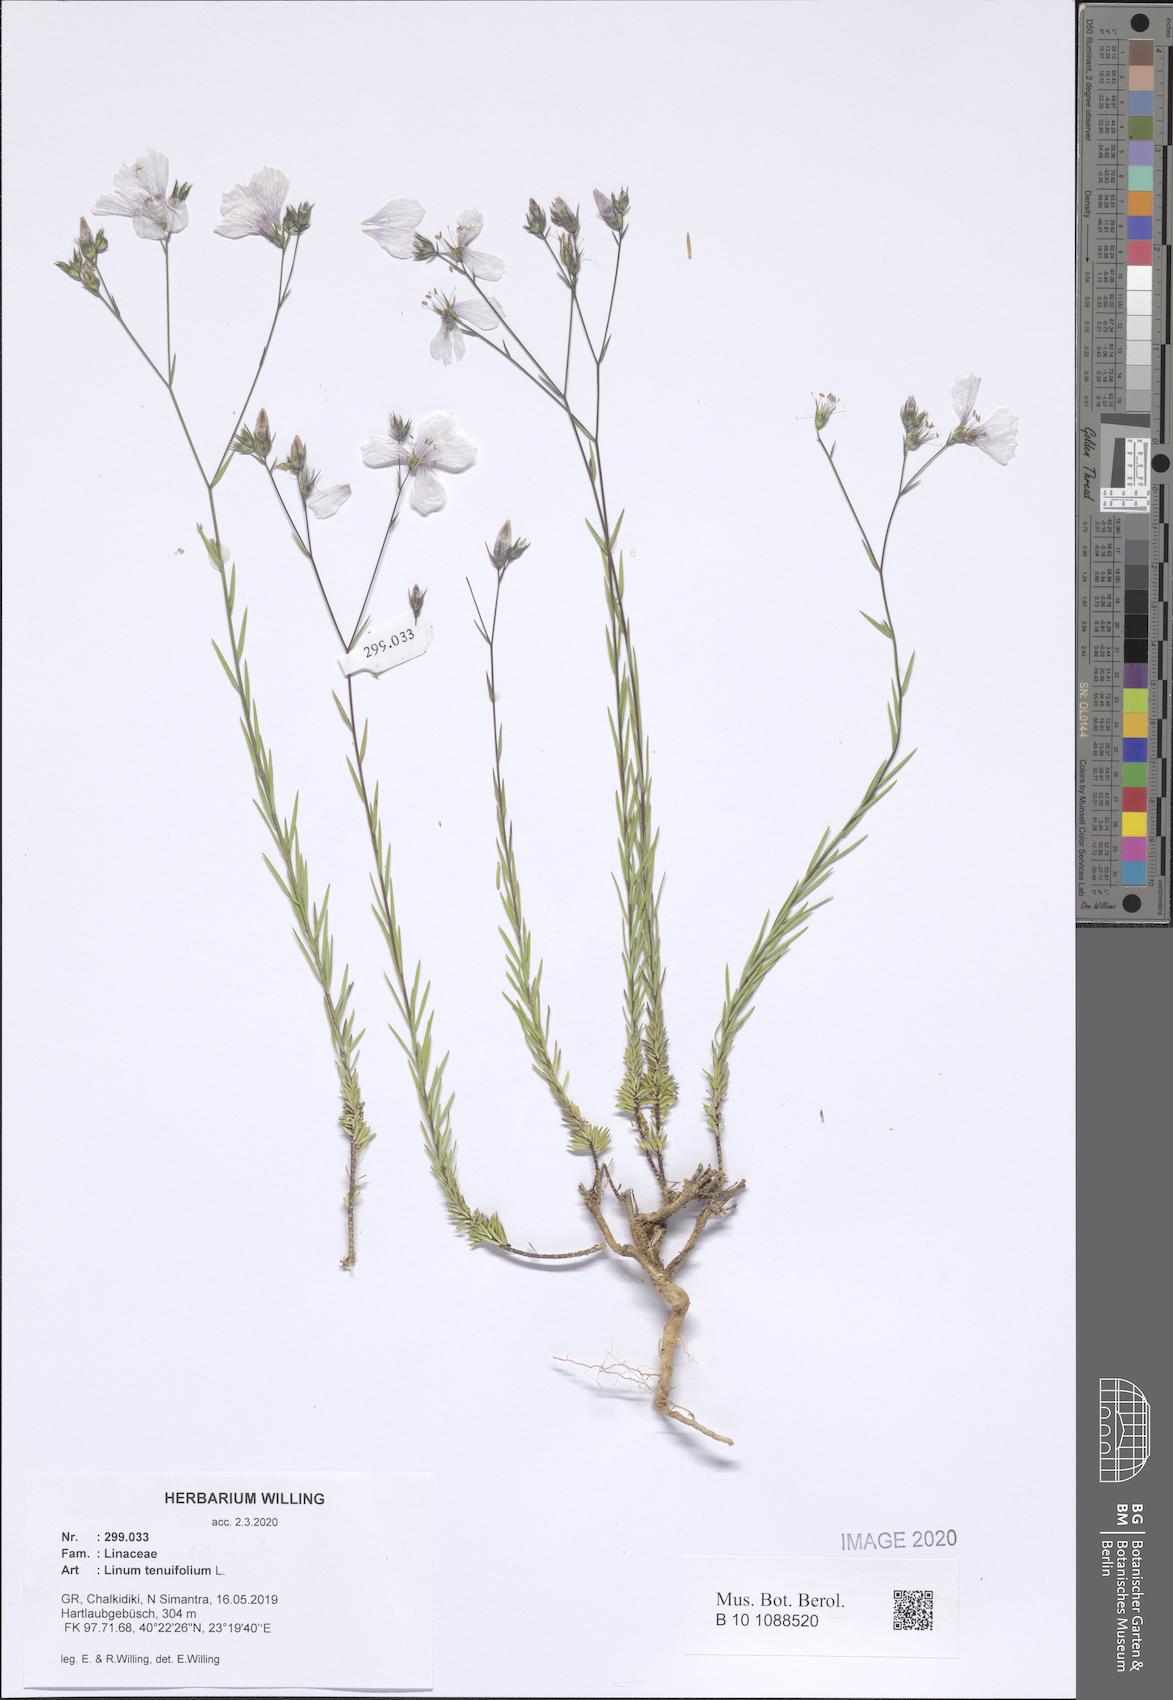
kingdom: Plantae
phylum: Tracheophyta
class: Magnoliopsida
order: Malpighiales
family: Linaceae
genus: Linum
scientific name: Linum tenuifolium
